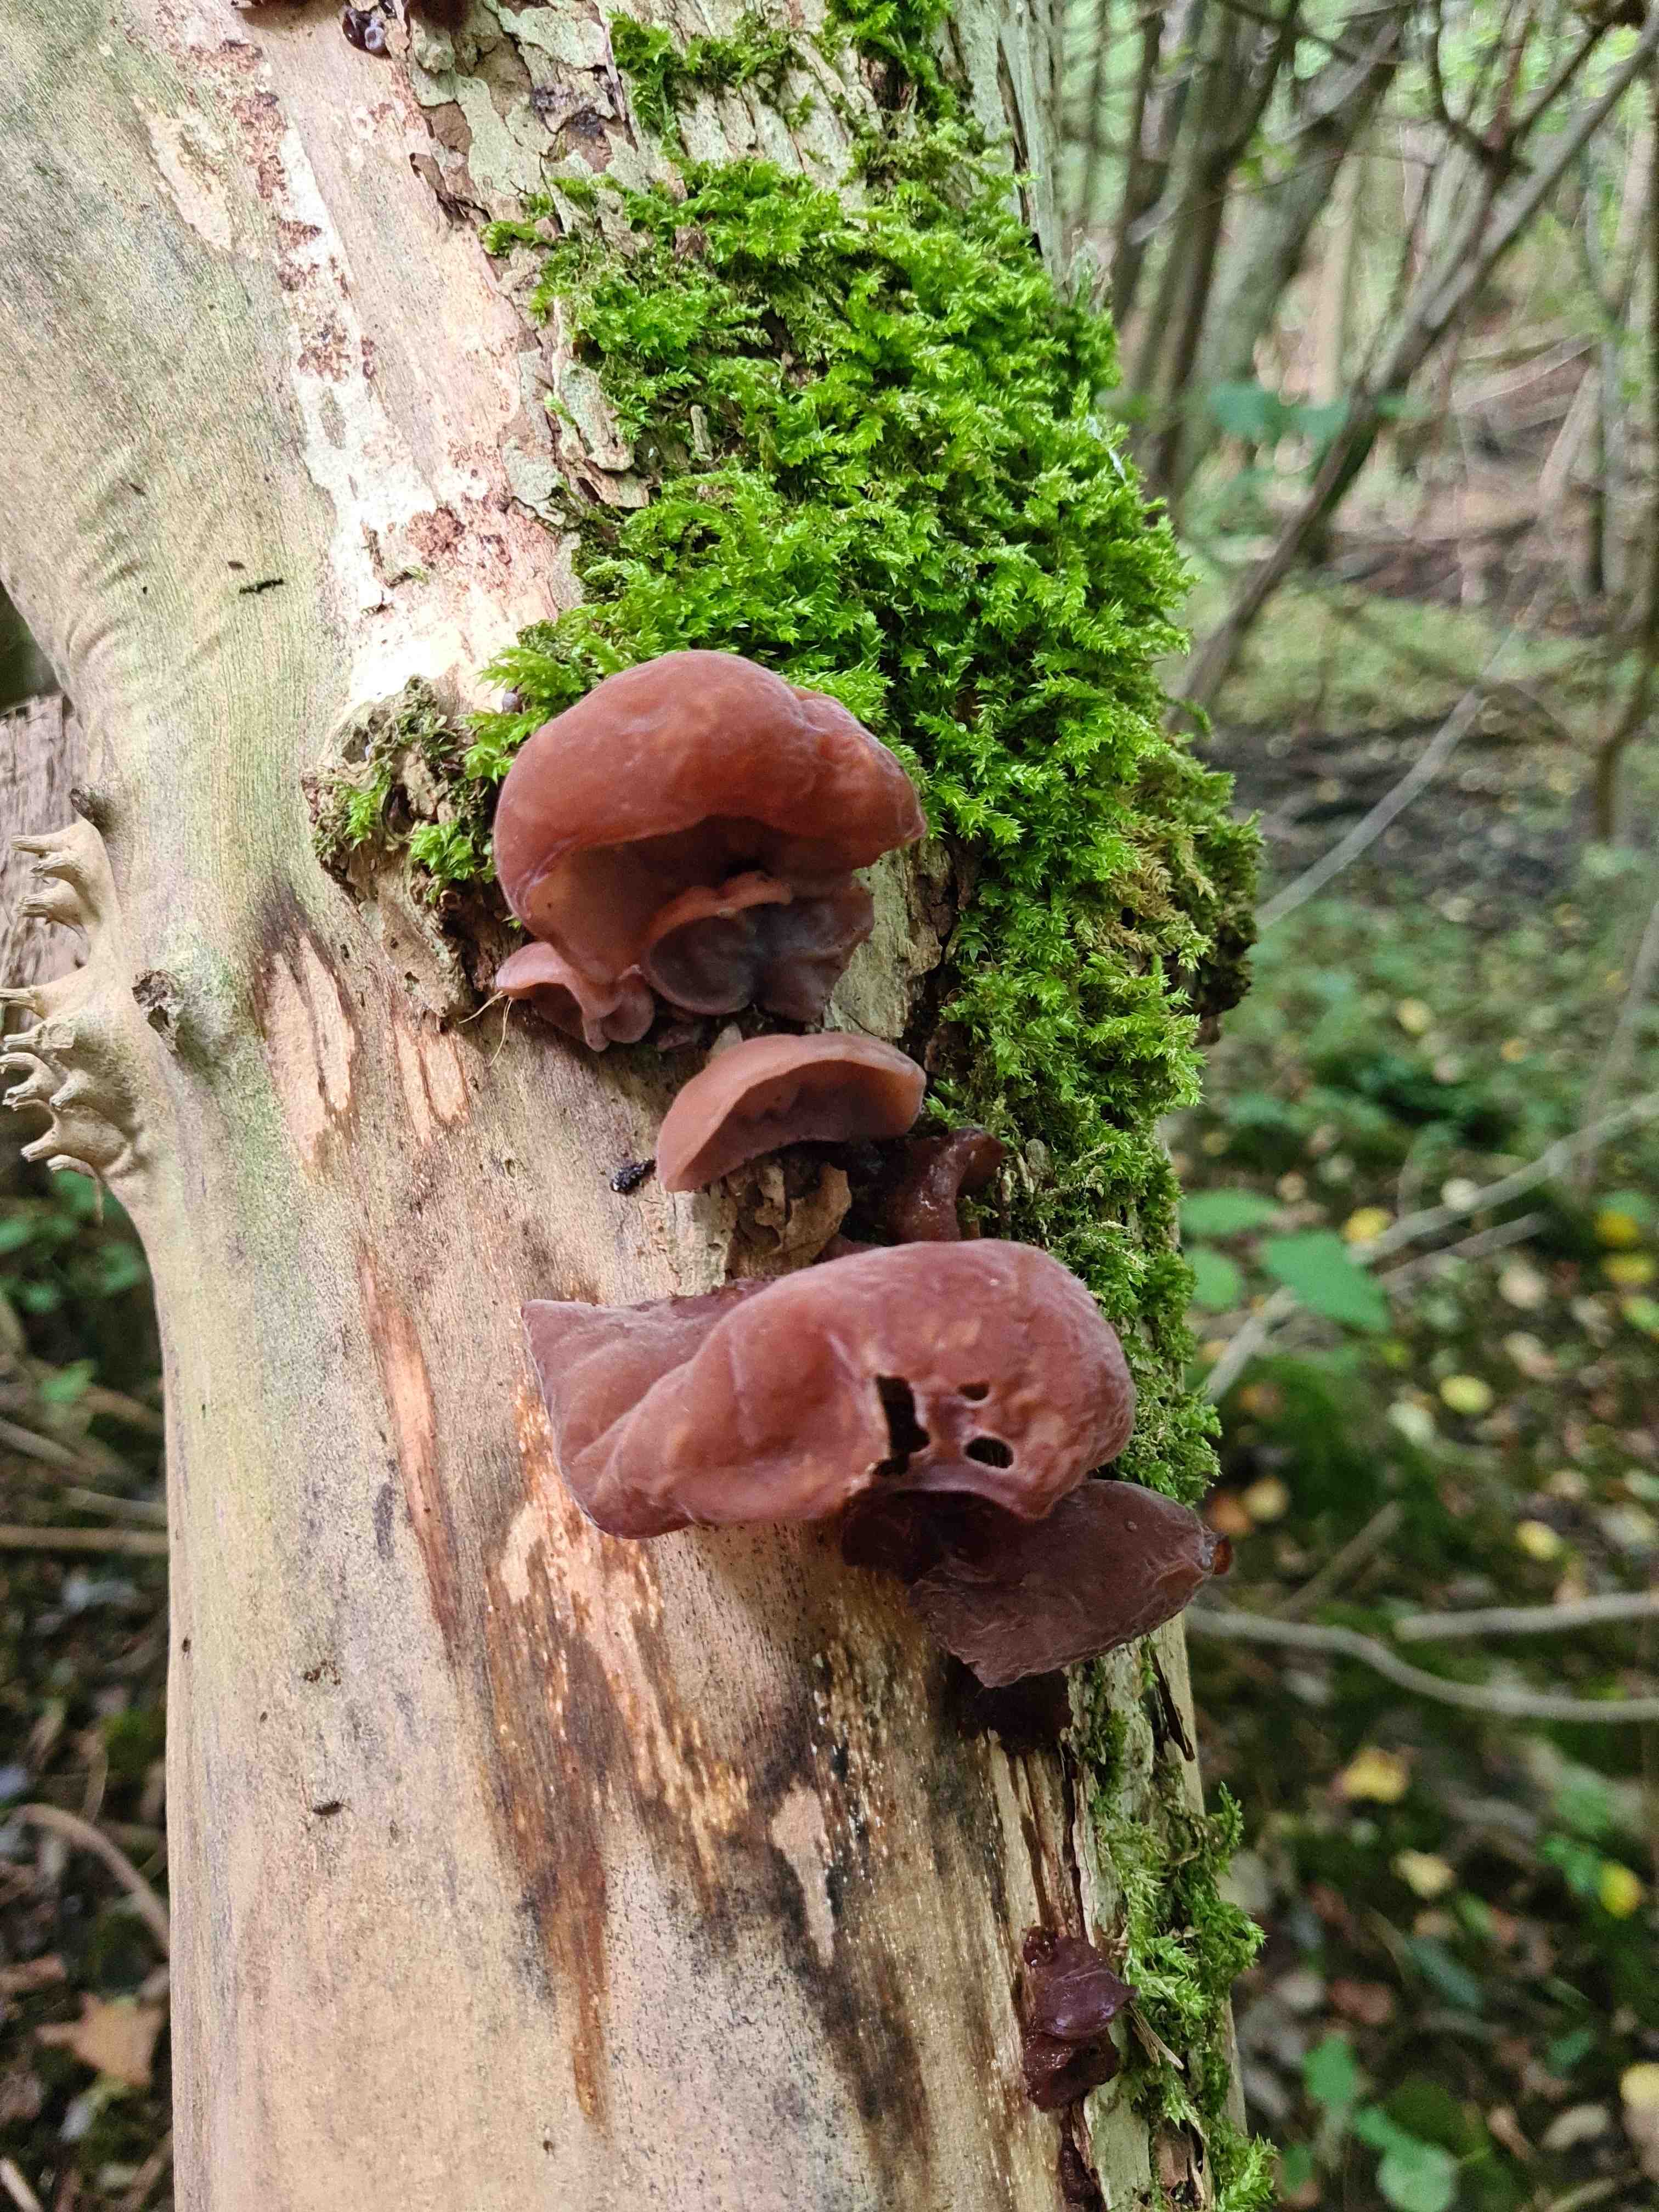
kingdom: Fungi
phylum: Basidiomycota
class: Agaricomycetes
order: Auriculariales
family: Auriculariaceae
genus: Auricularia
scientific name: Auricularia auricula-judae
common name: almindelig judasøre
